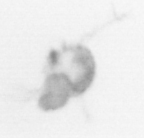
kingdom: Animalia
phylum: Arthropoda
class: Copepoda
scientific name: Copepoda
